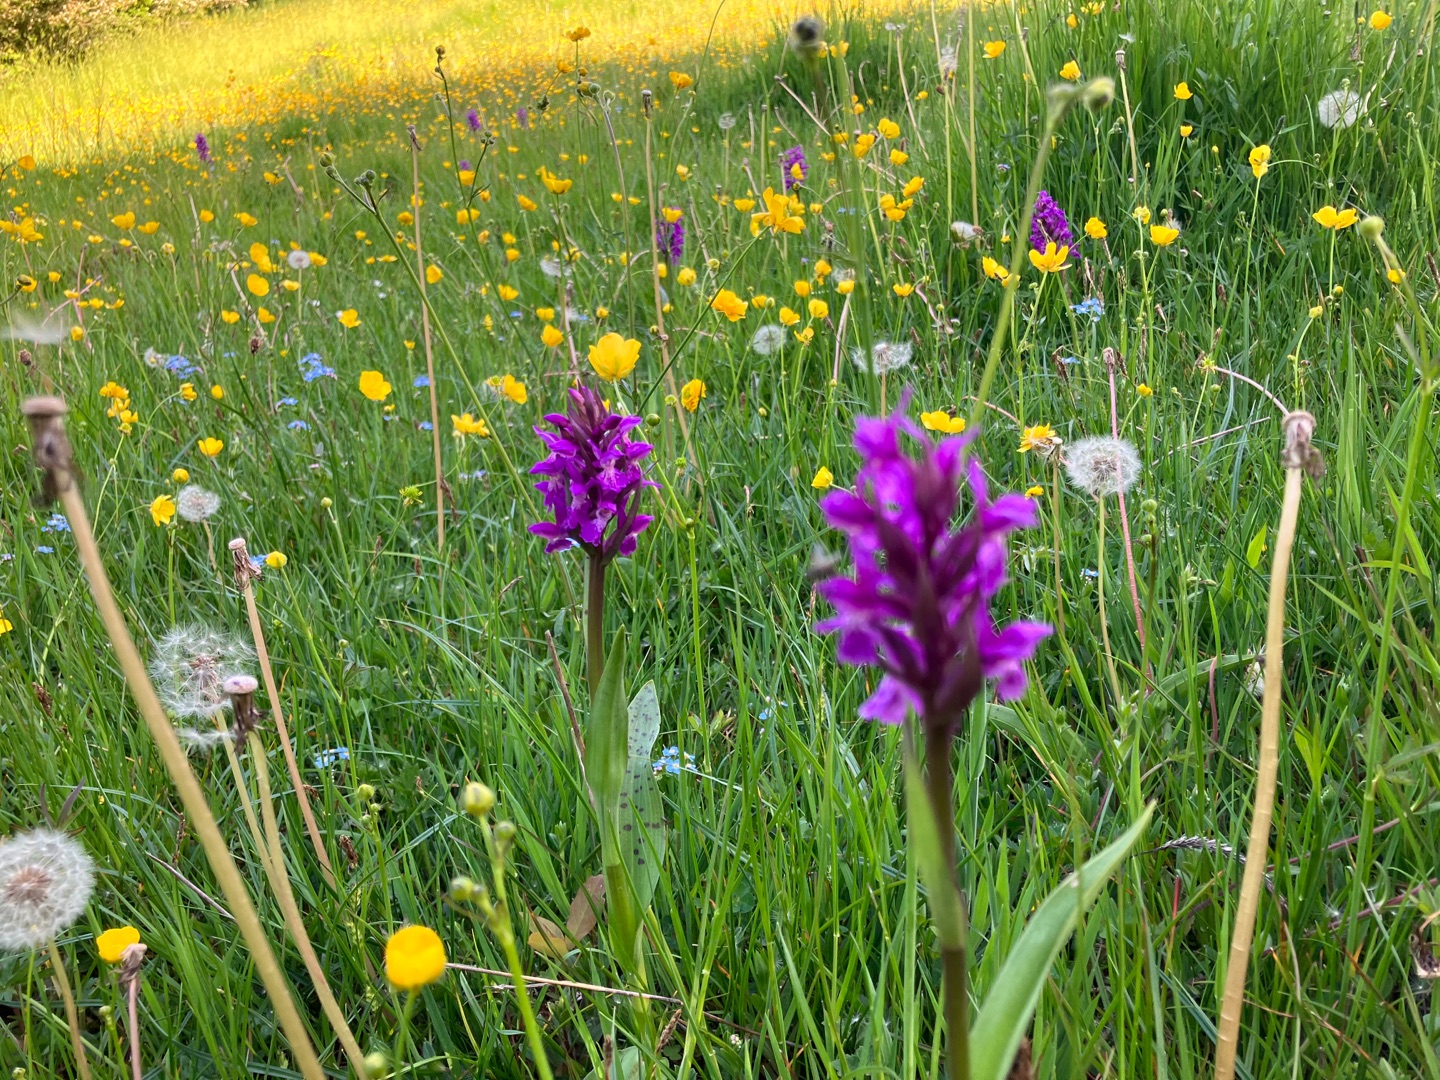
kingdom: Plantae
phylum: Tracheophyta
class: Liliopsida
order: Asparagales
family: Orchidaceae
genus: Dactylorhiza
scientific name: Dactylorhiza majalis
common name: Maj-gøgeurt
